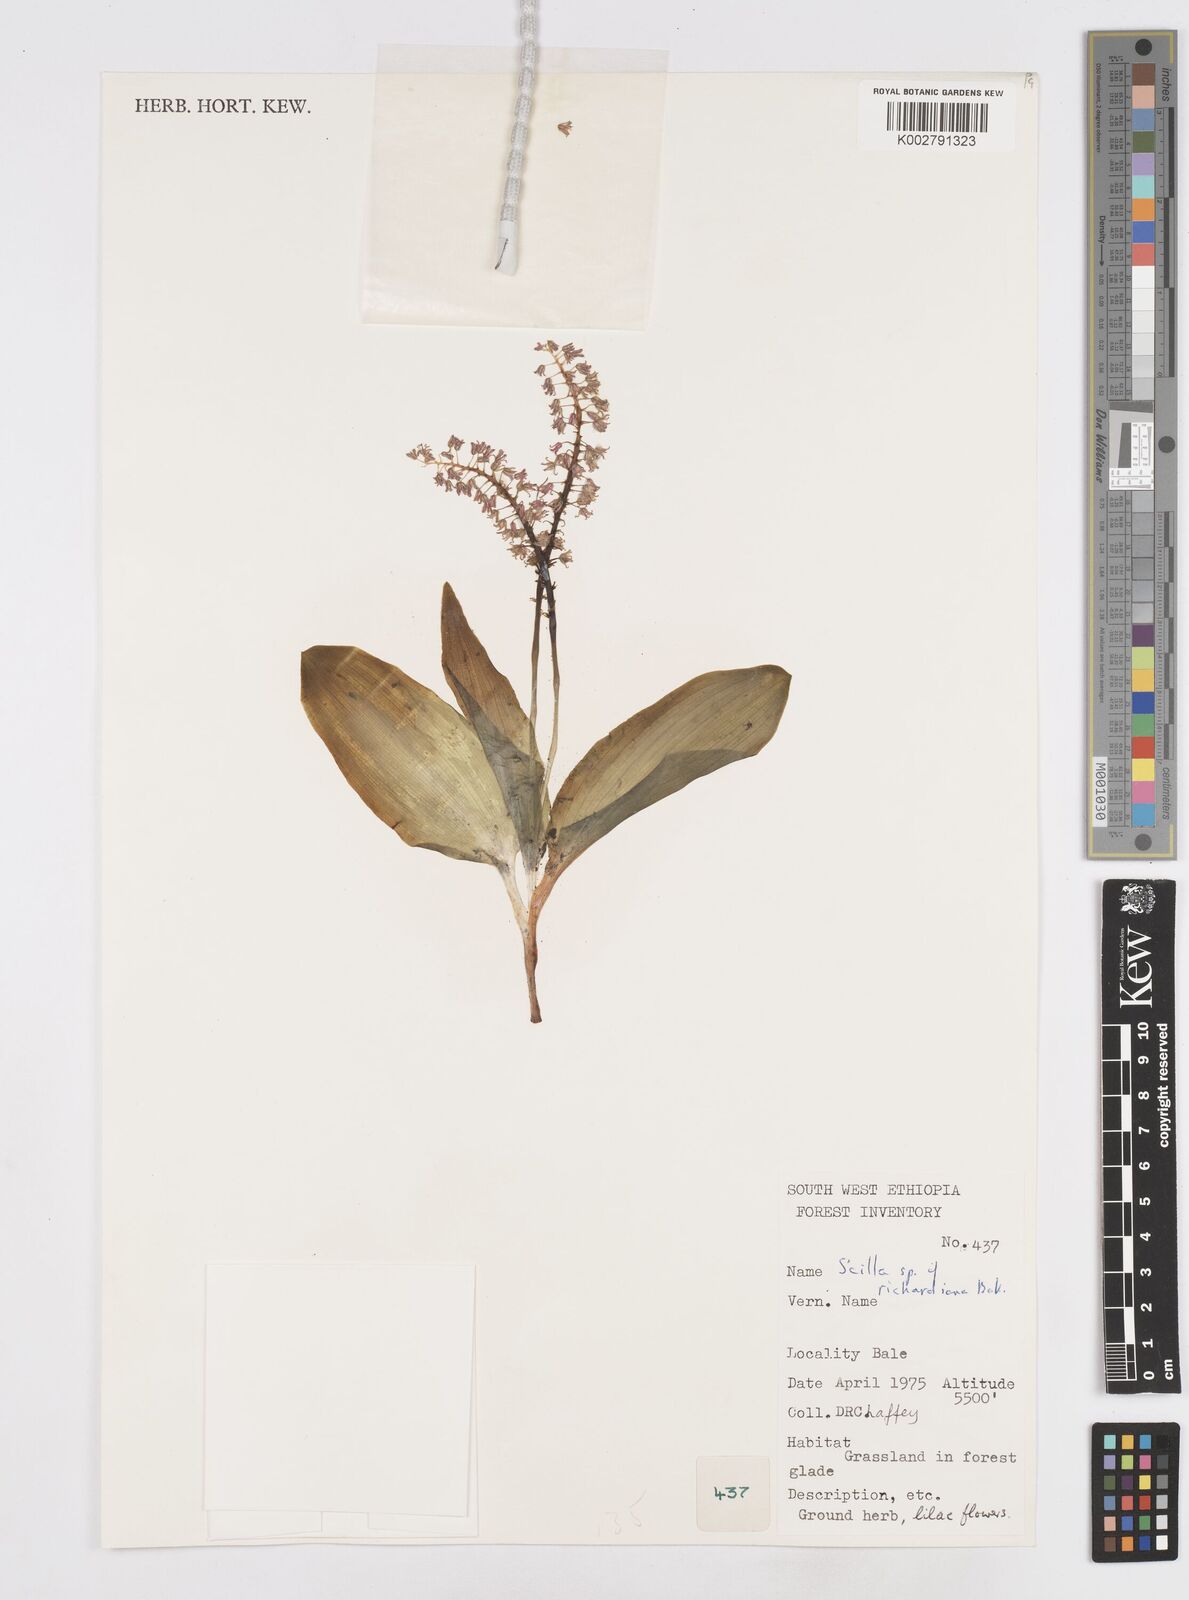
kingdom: Plantae
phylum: Tracheophyta
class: Liliopsida
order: Asparagales
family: Asparagaceae
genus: Ledebouria
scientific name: Ledebouria revoluta
